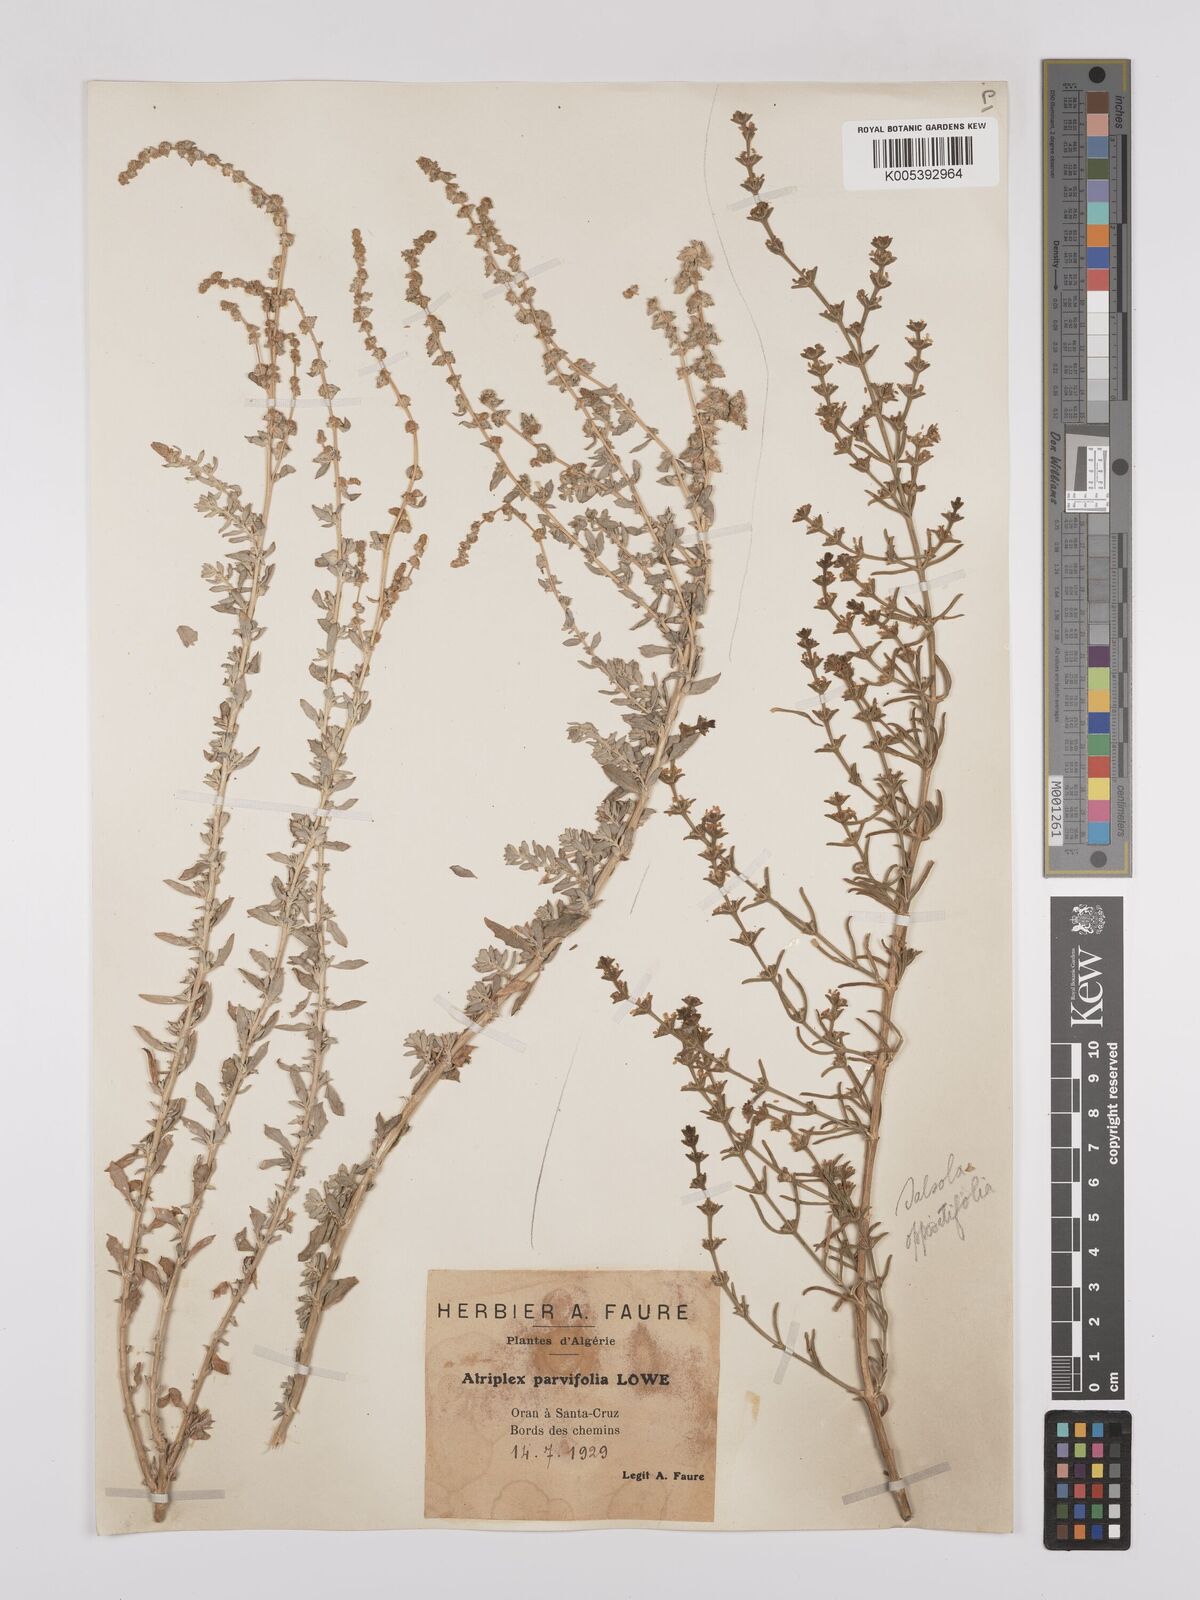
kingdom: Plantae
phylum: Tracheophyta
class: Magnoliopsida
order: Caryophyllales
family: Amaranthaceae
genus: Atriplex
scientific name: Atriplex
